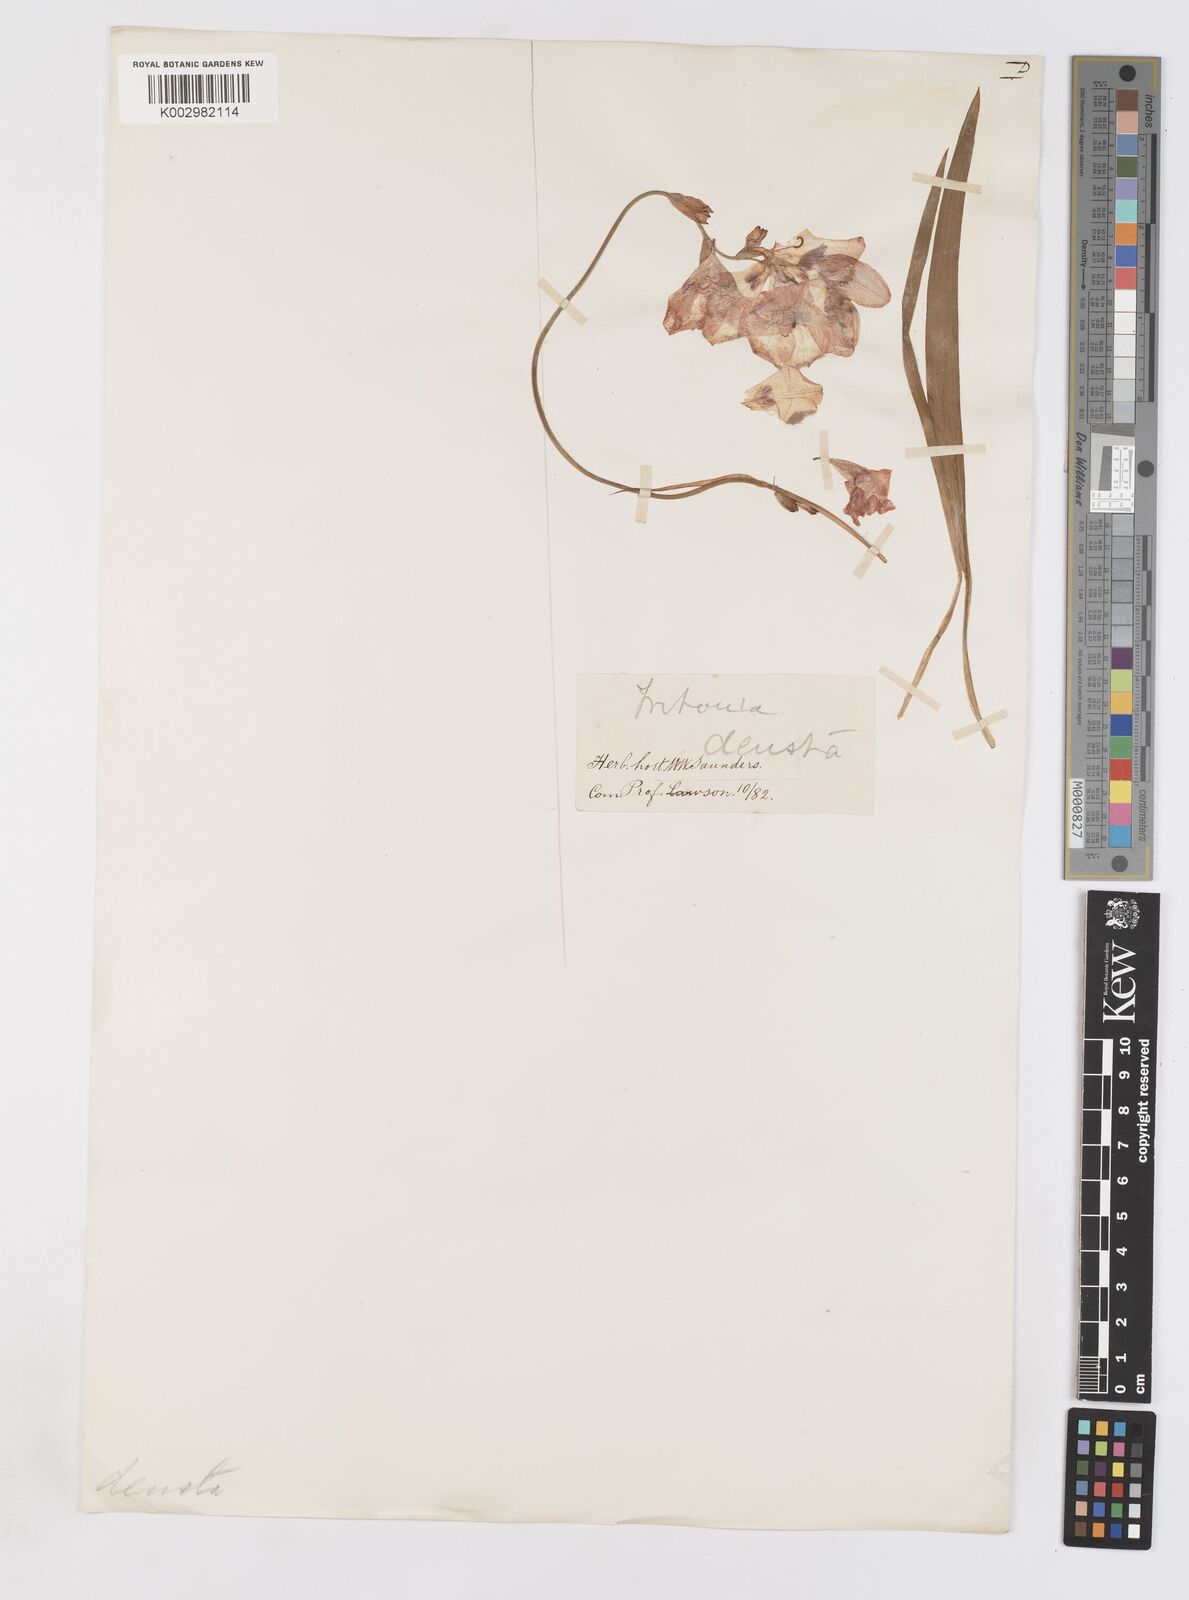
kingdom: Plantae
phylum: Tracheophyta
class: Liliopsida
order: Asparagales
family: Iridaceae
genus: Tritonia
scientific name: Tritonia deusta
